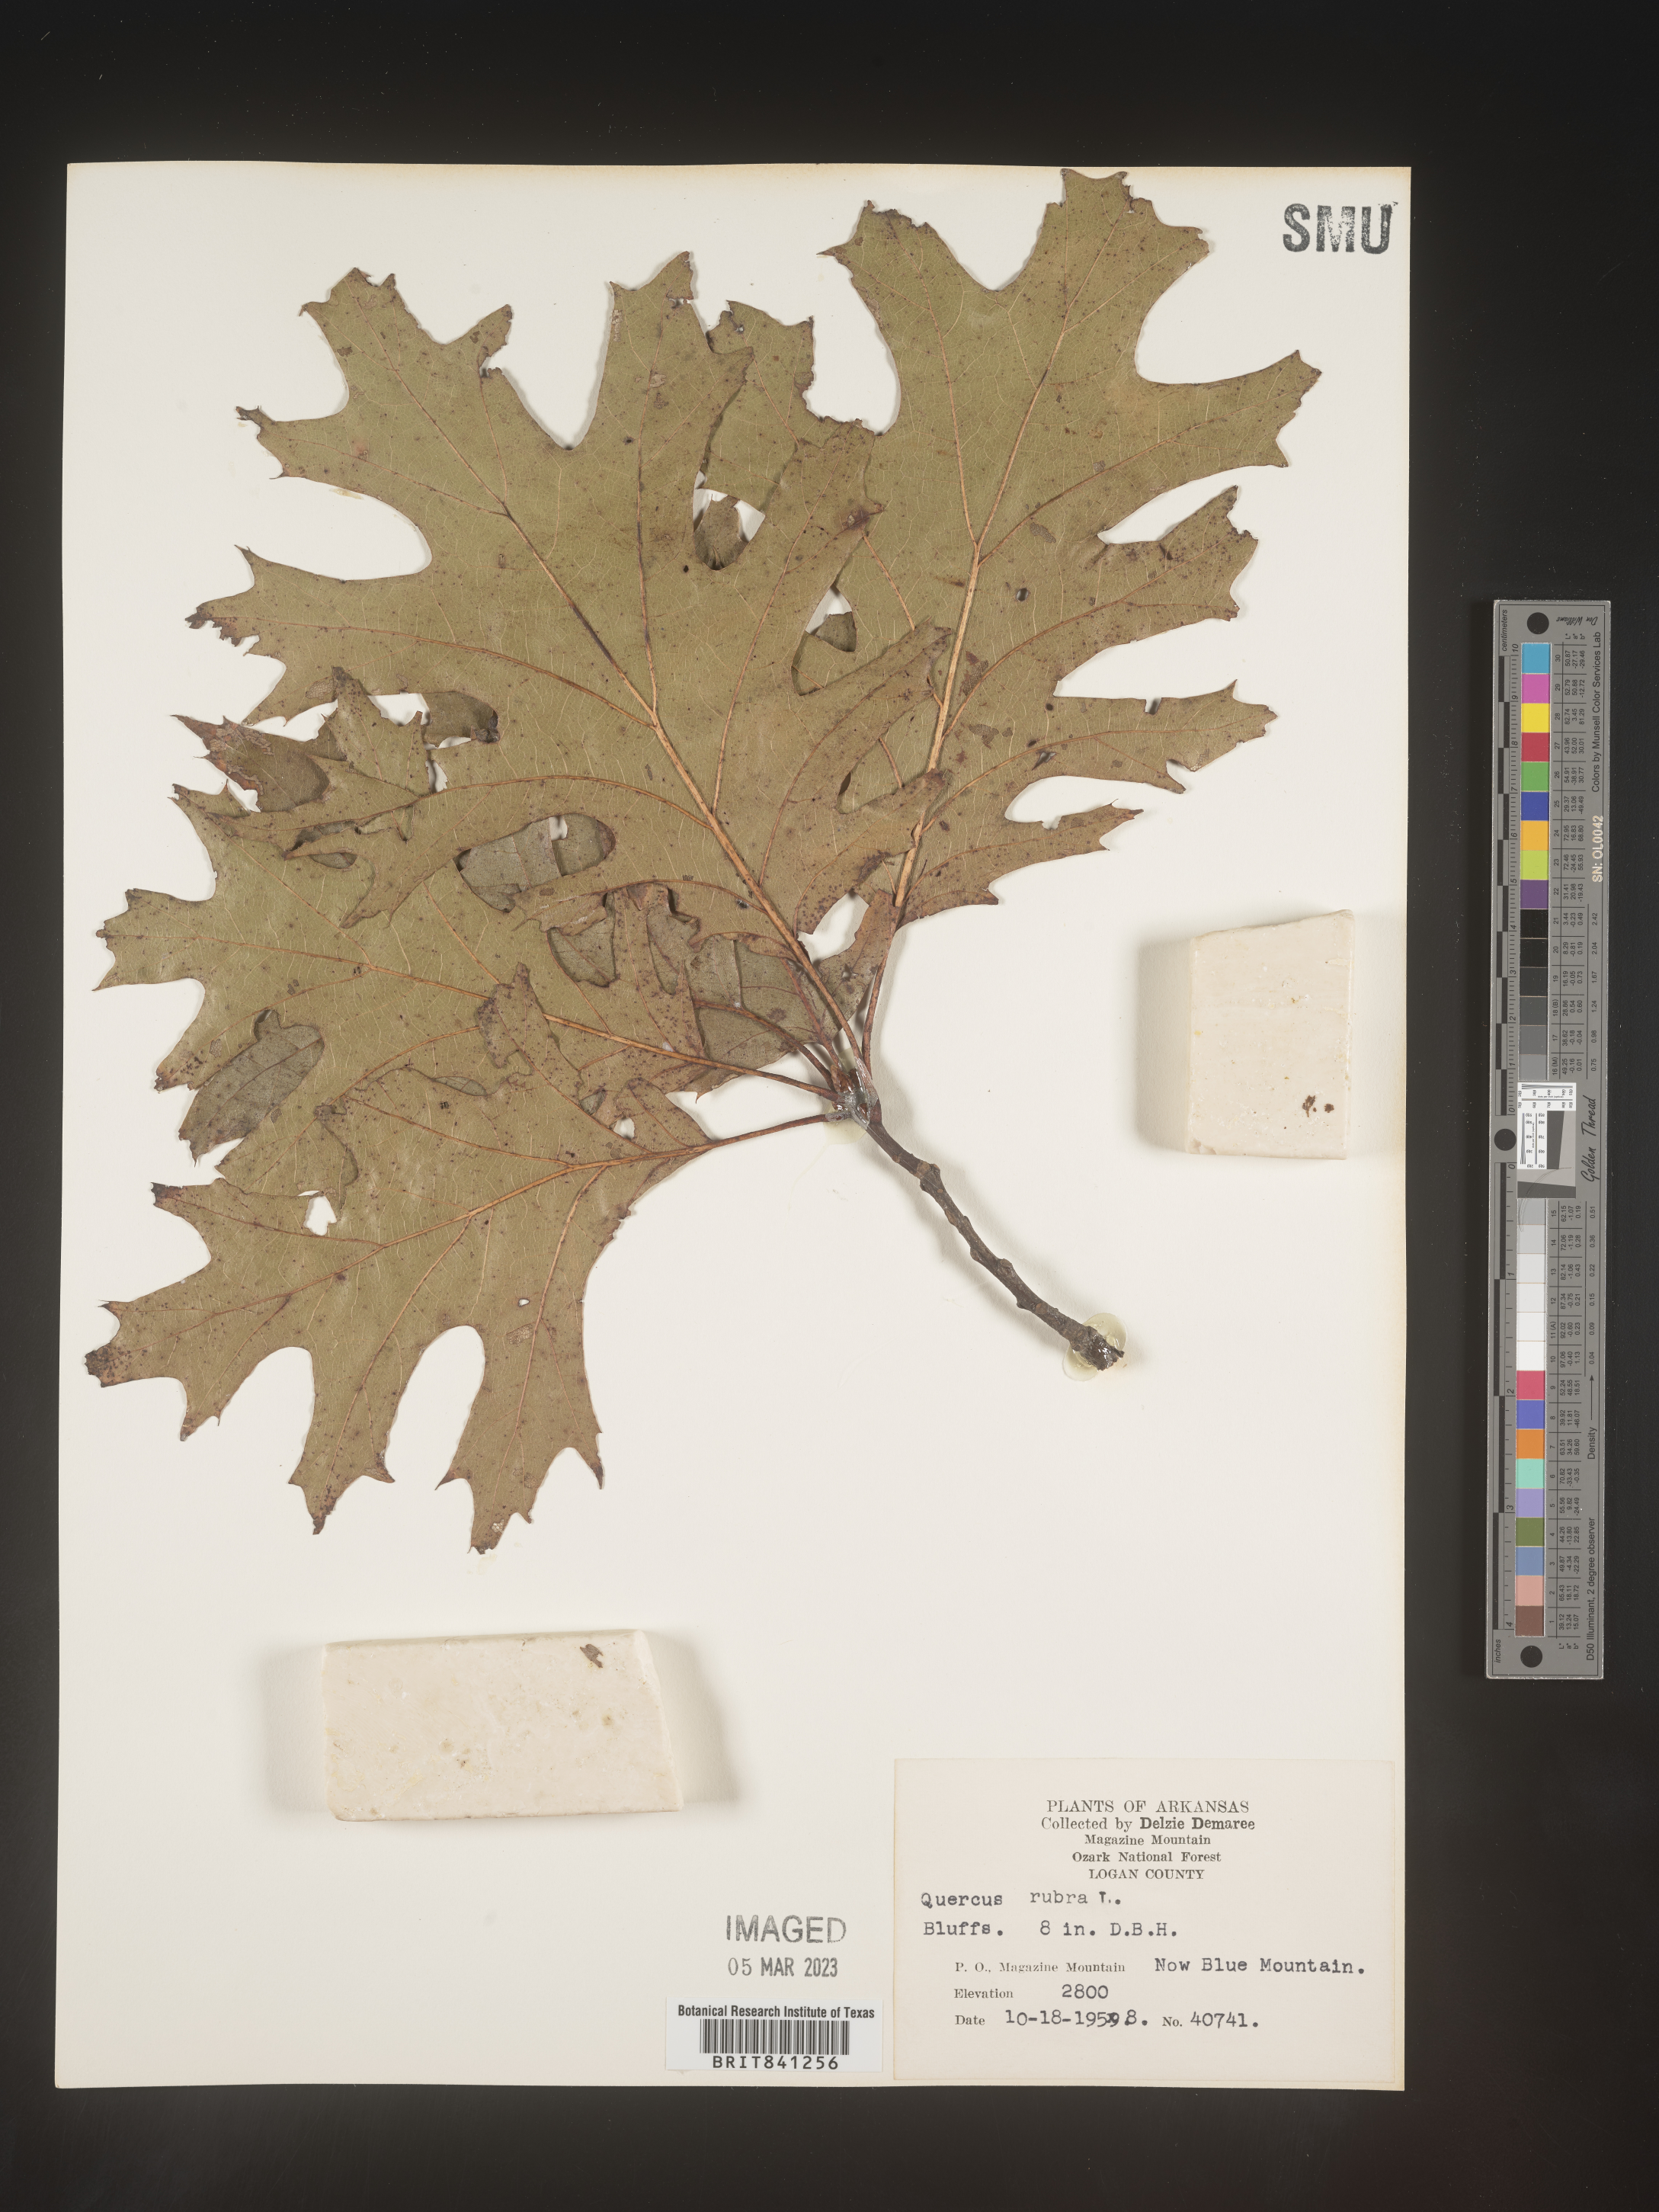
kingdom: Plantae
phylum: Tracheophyta
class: Magnoliopsida
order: Fagales
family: Fagaceae
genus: Quercus
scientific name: Quercus rubra
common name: Red oak
